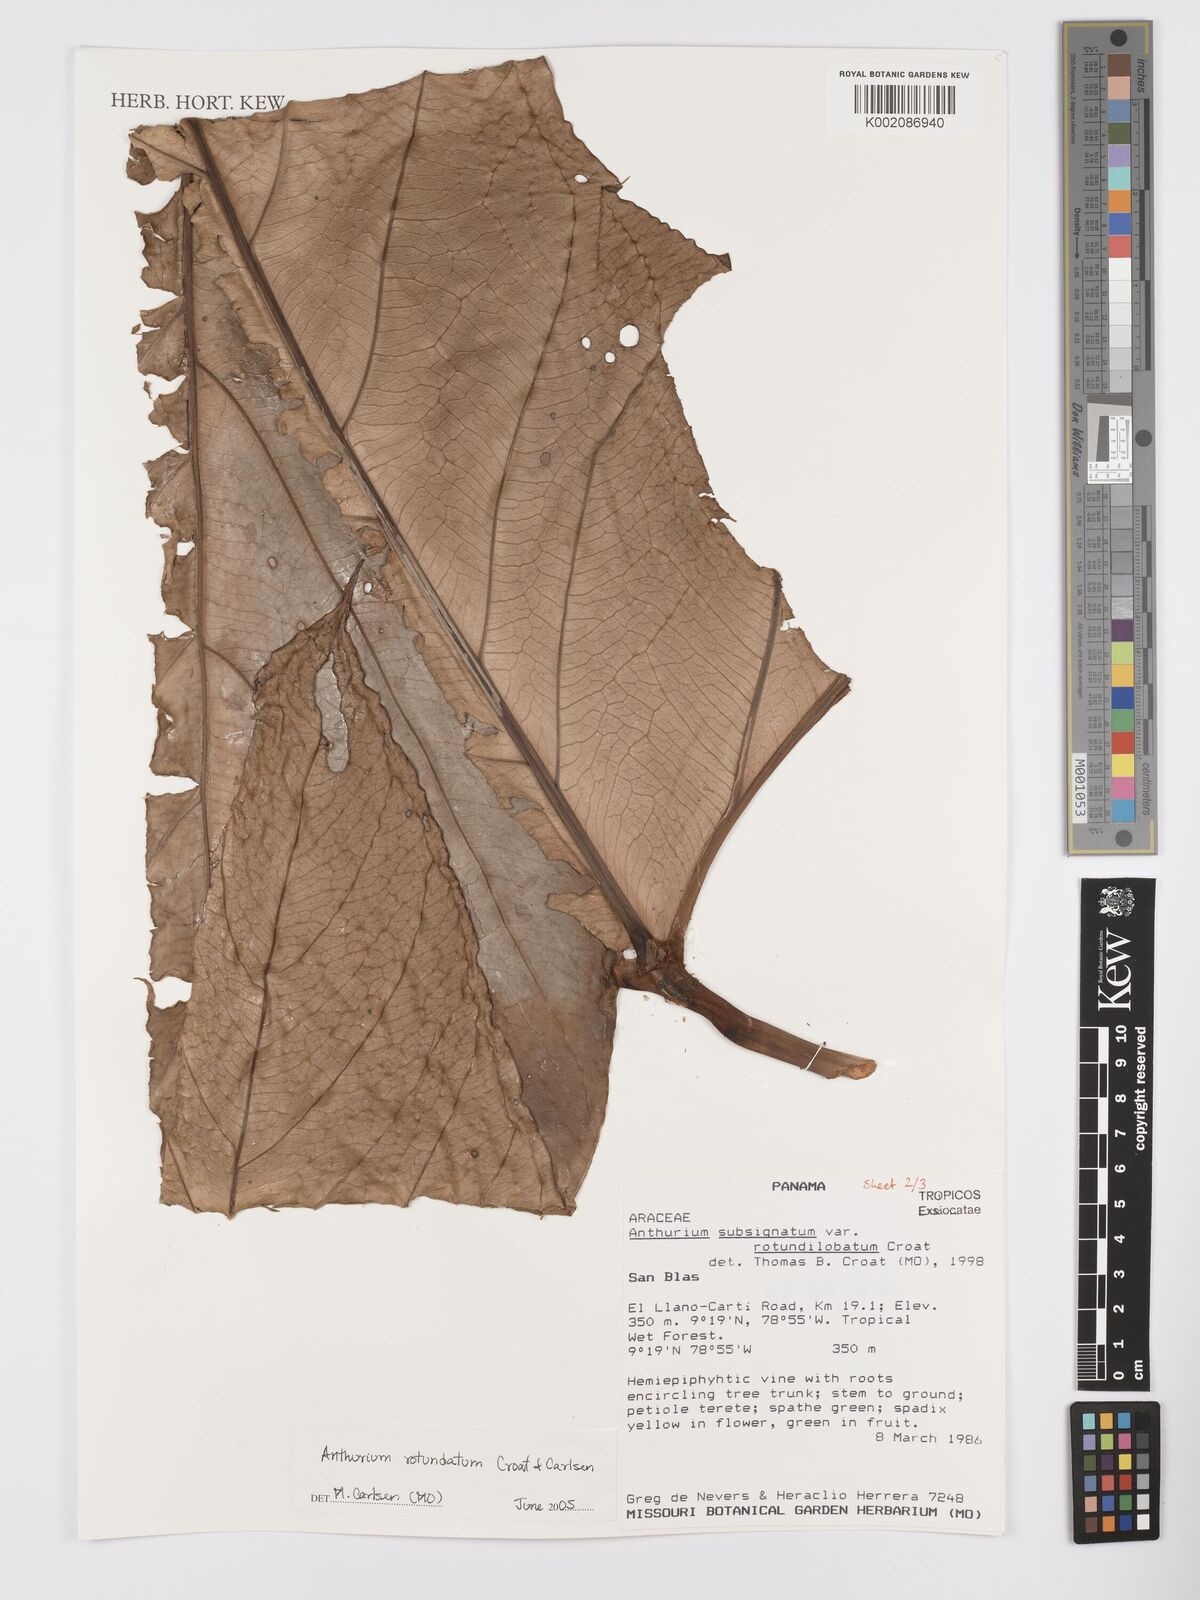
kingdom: Plantae
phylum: Tracheophyta
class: Liliopsida
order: Alismatales
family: Araceae
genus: Anthurium
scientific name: Anthurium rotundatum
